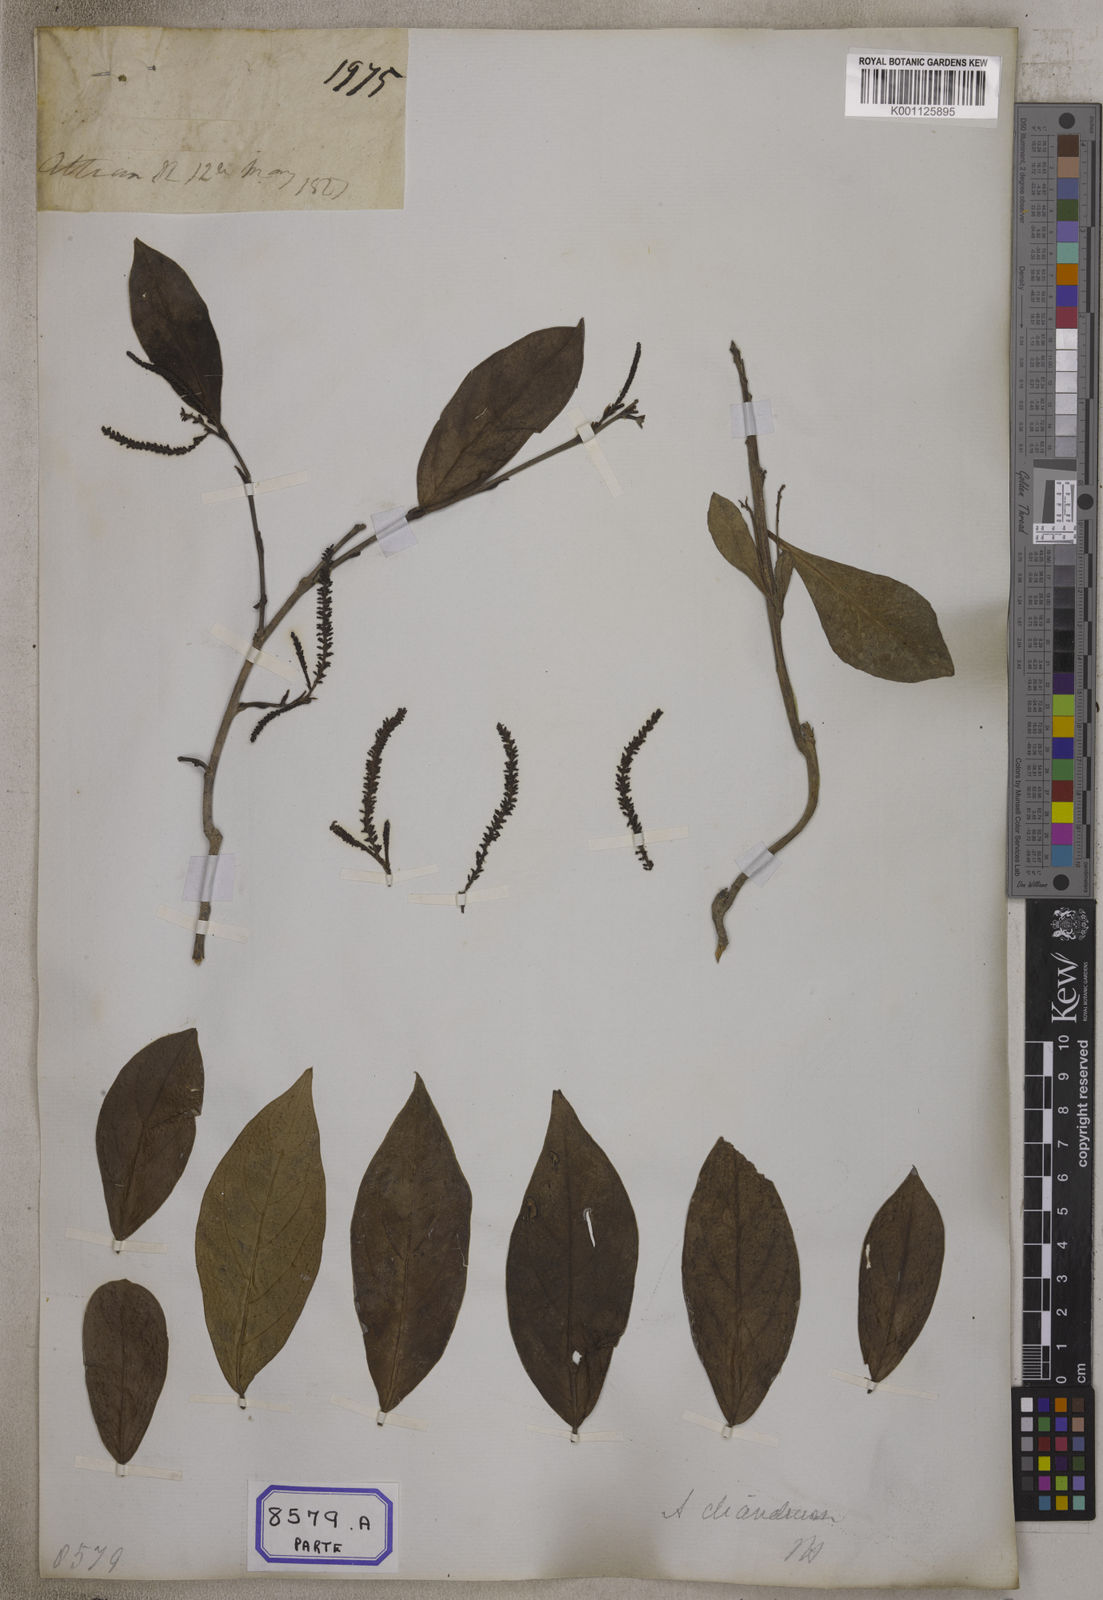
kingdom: Plantae
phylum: Tracheophyta
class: Magnoliopsida
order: Malpighiales
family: Phyllanthaceae
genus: Antidesma
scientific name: Antidesma
